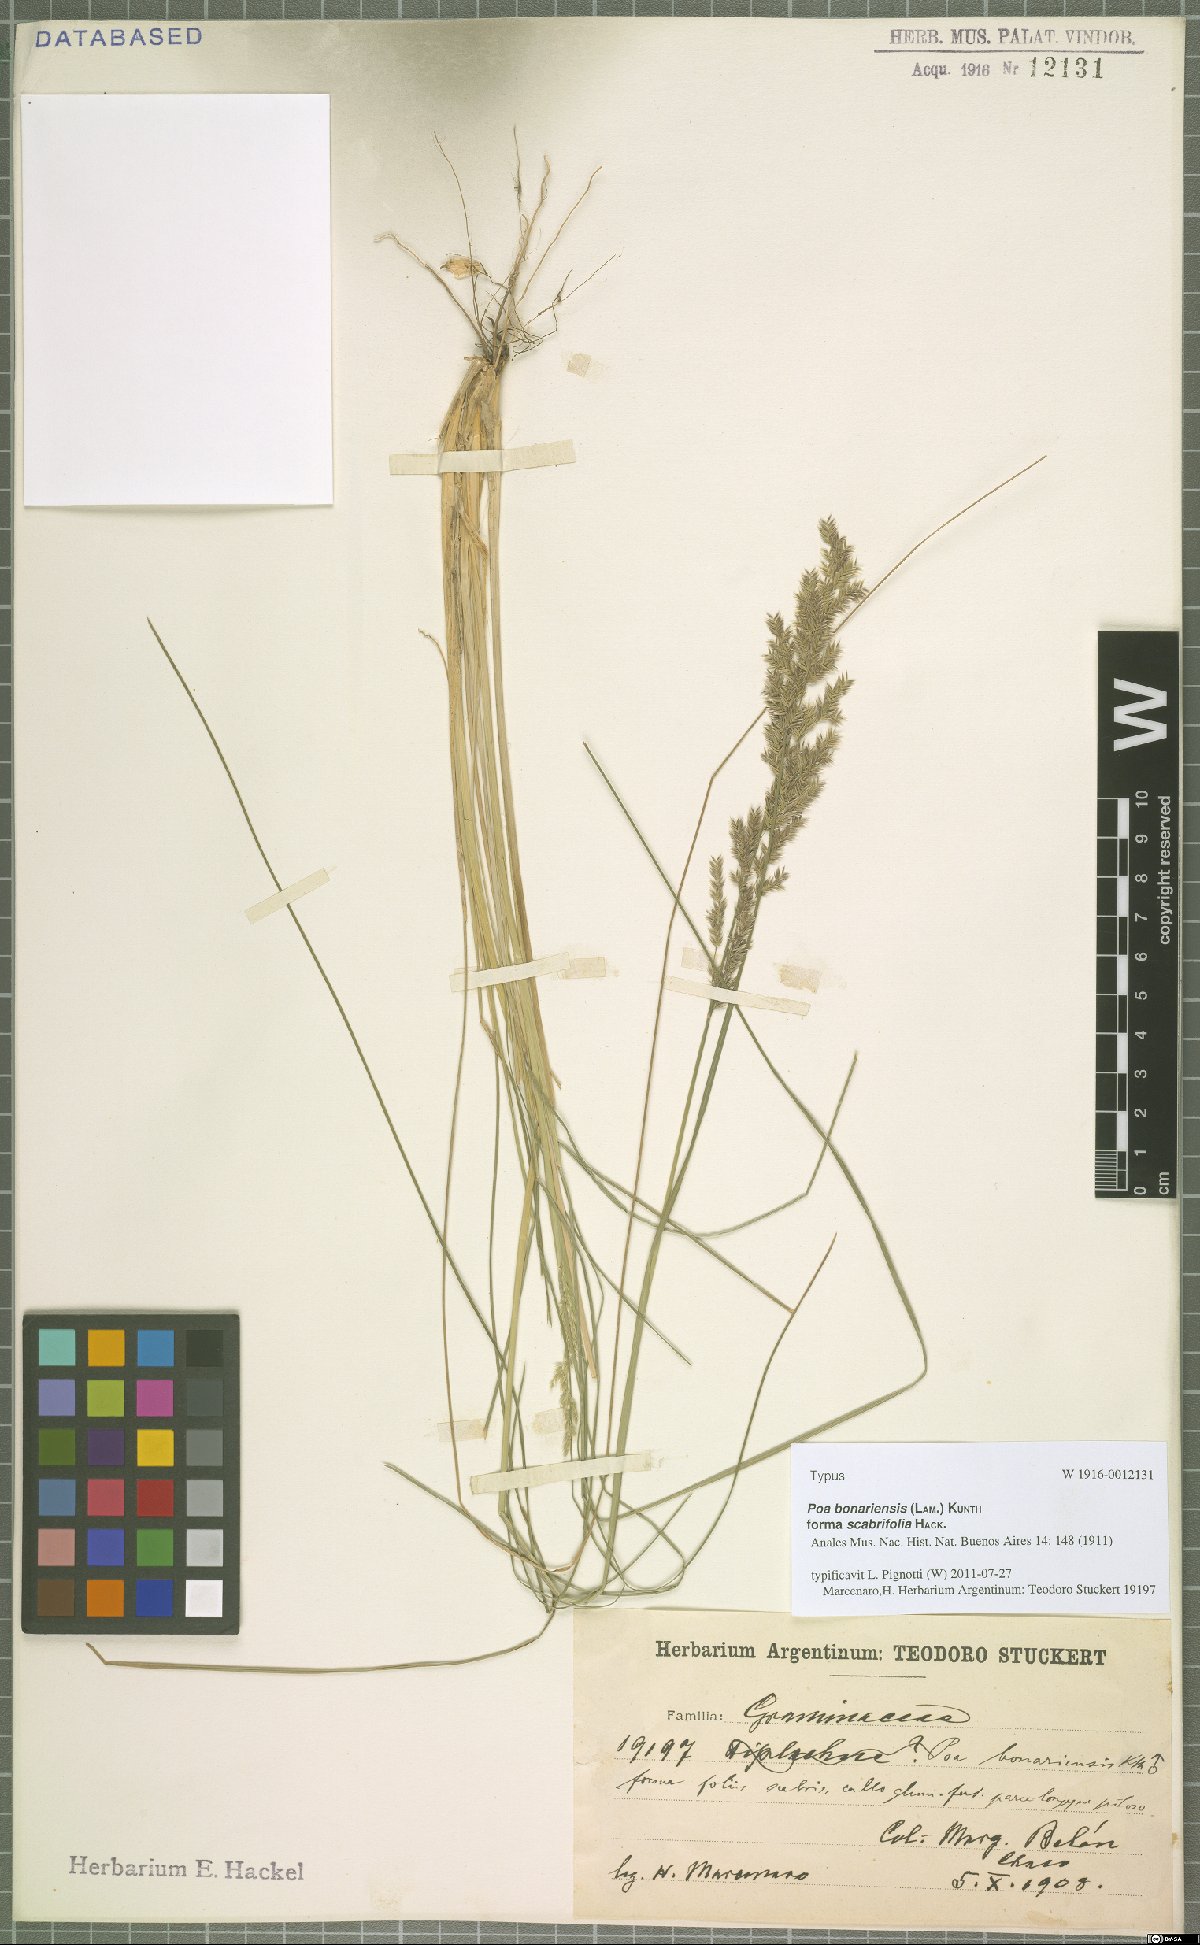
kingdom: Plantae
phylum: Tracheophyta
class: Liliopsida
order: Poales
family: Poaceae
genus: Poa
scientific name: Poa bonariensis
